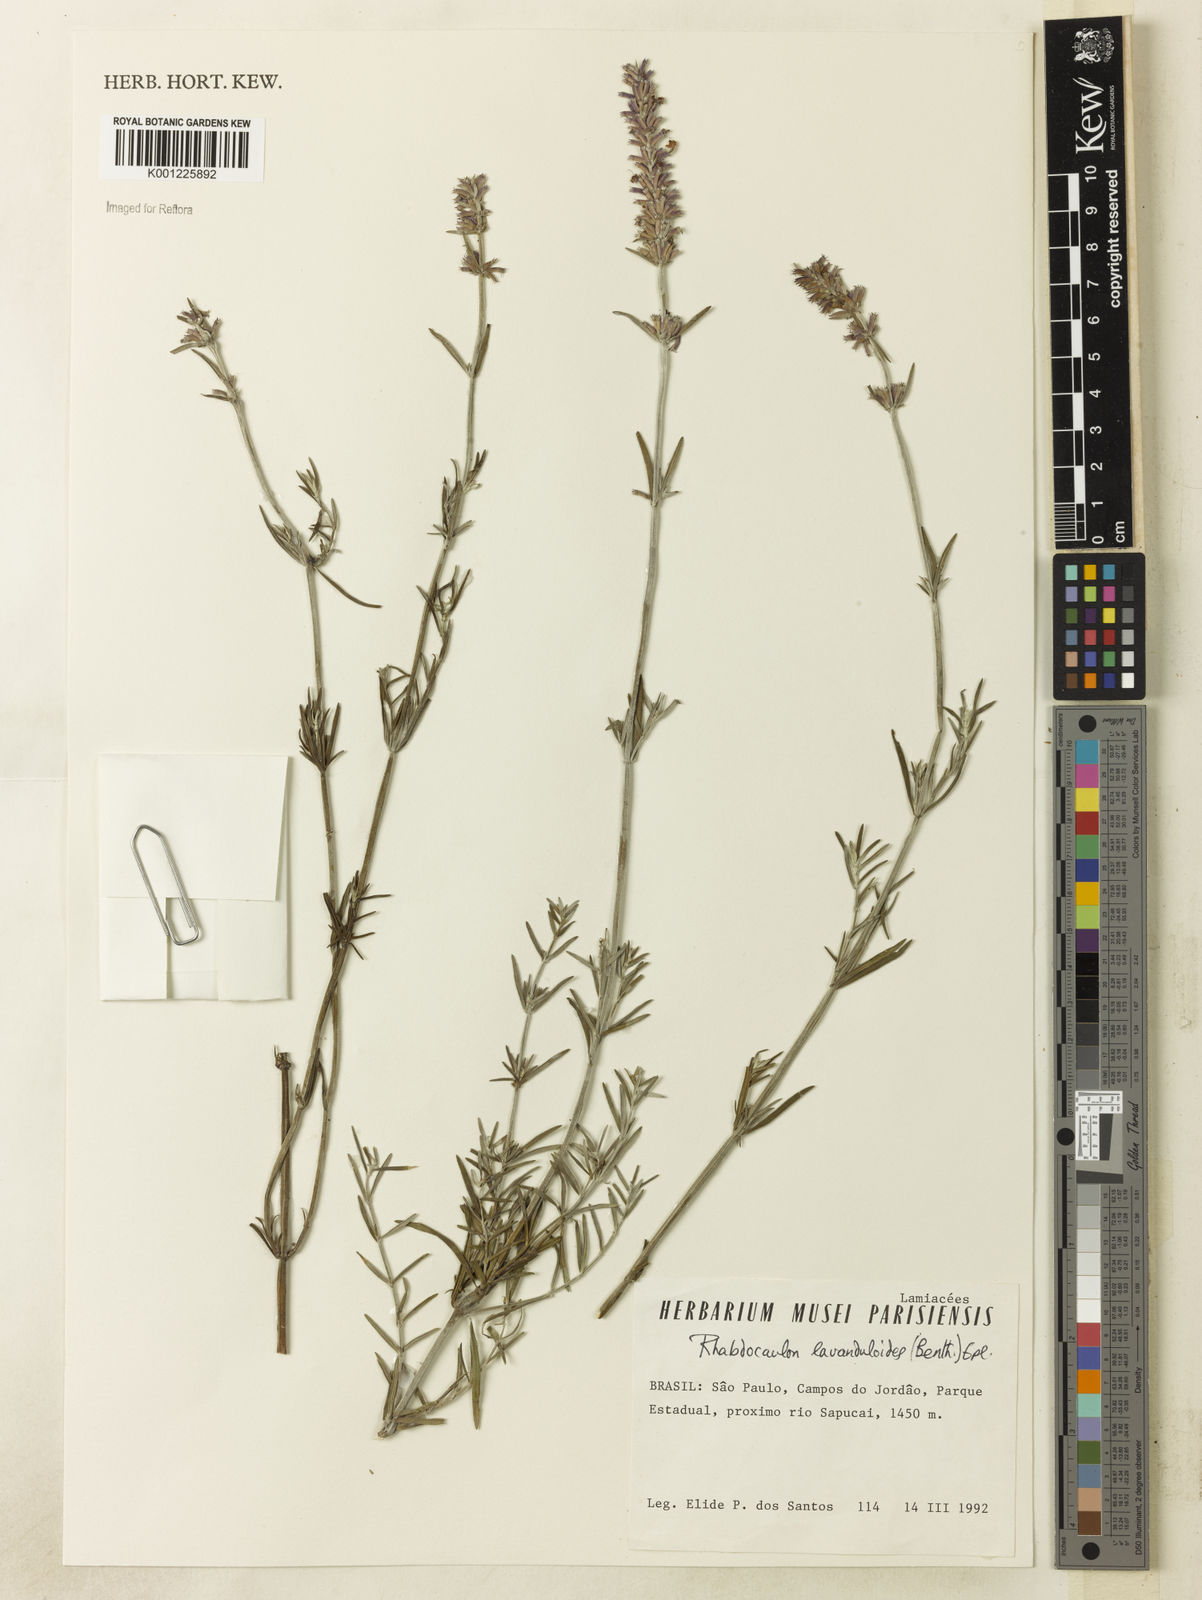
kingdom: Plantae
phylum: Tracheophyta
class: Magnoliopsida
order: Lamiales
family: Lamiaceae
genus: Rhabdocaulon
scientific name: Rhabdocaulon lavanduloides
